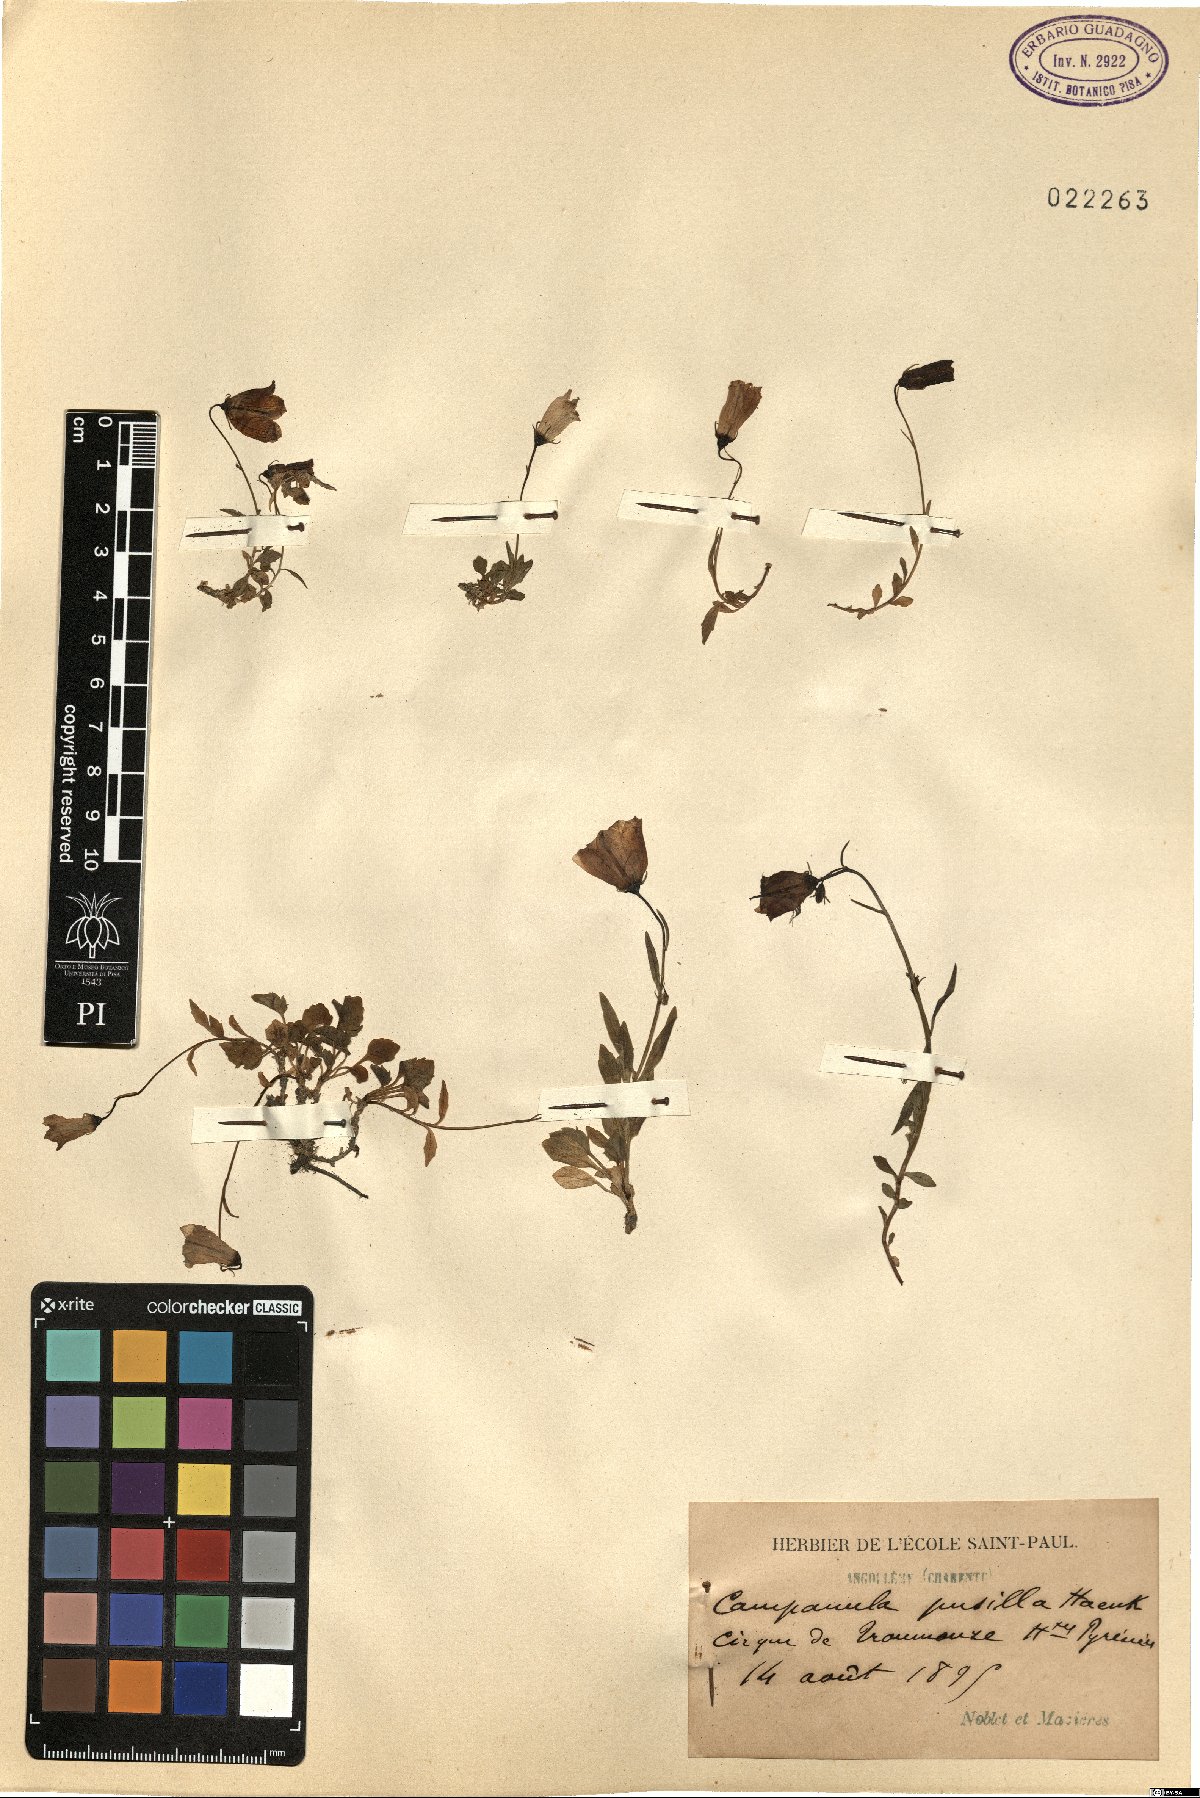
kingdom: Plantae
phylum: Tracheophyta
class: Magnoliopsida
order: Asterales
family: Campanulaceae
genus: Campanula
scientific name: Campanula cochleariifolia
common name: Fairies'-thimbles
